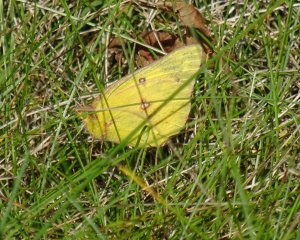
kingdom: Animalia
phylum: Arthropoda
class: Insecta
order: Lepidoptera
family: Pieridae
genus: Colias
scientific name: Colias philodice
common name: Clouded Sulphur
